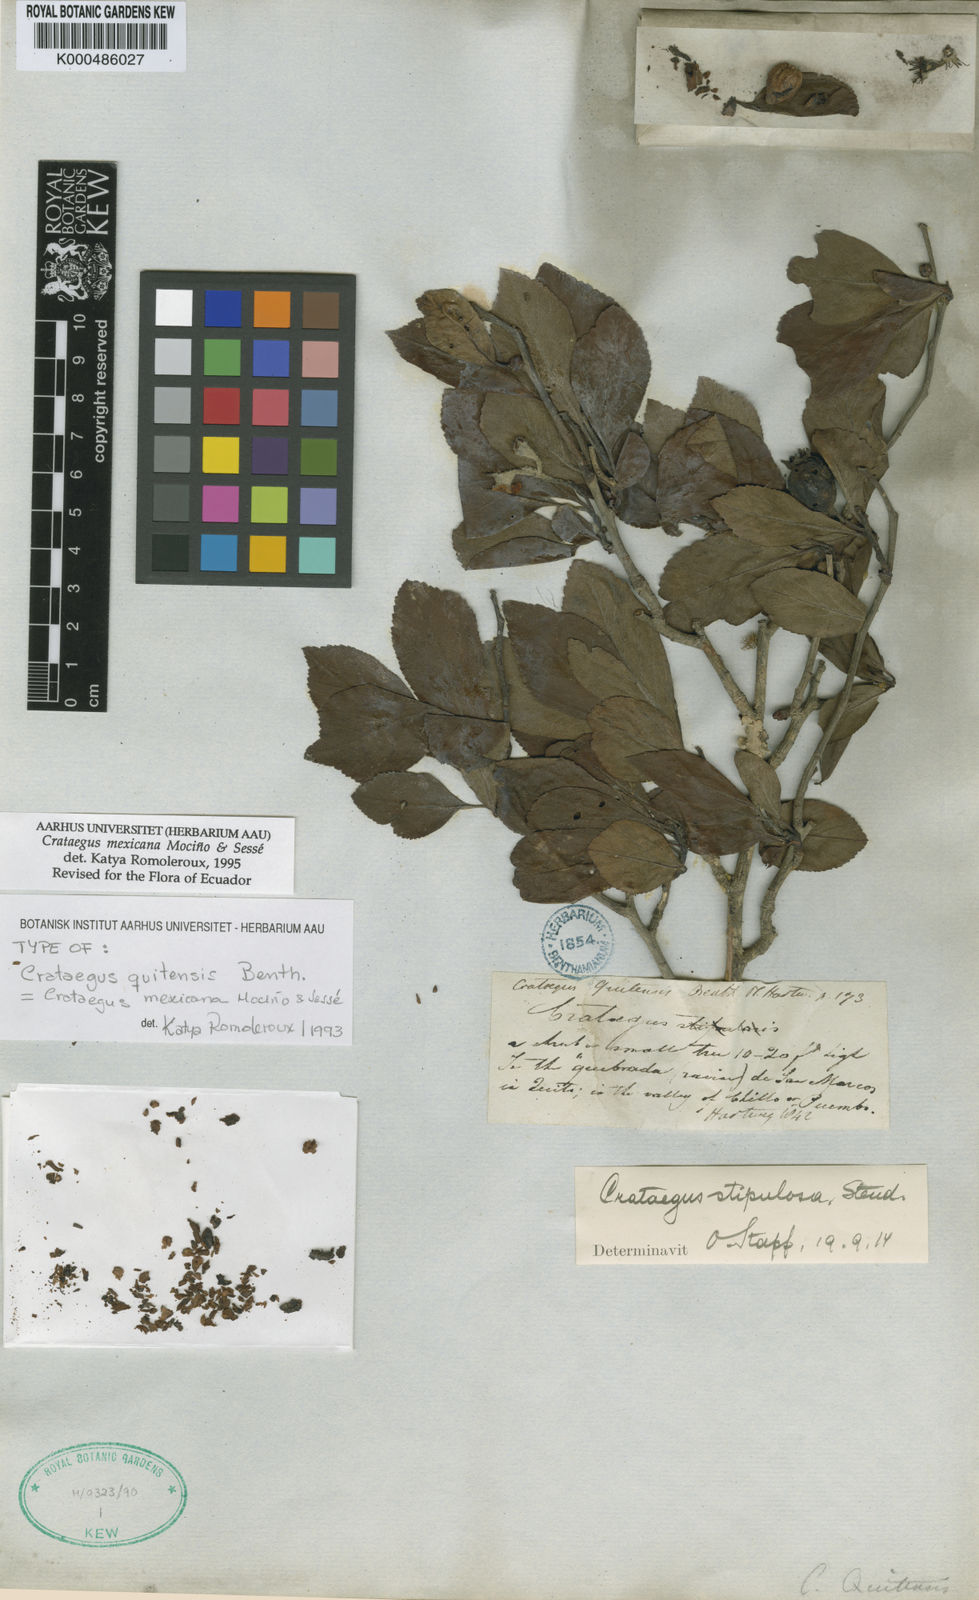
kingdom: Plantae
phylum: Tracheophyta
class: Magnoliopsida
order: Rosales
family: Rosaceae
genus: Crataegus
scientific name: Crataegus mexicana
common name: Mexican hawthorn
